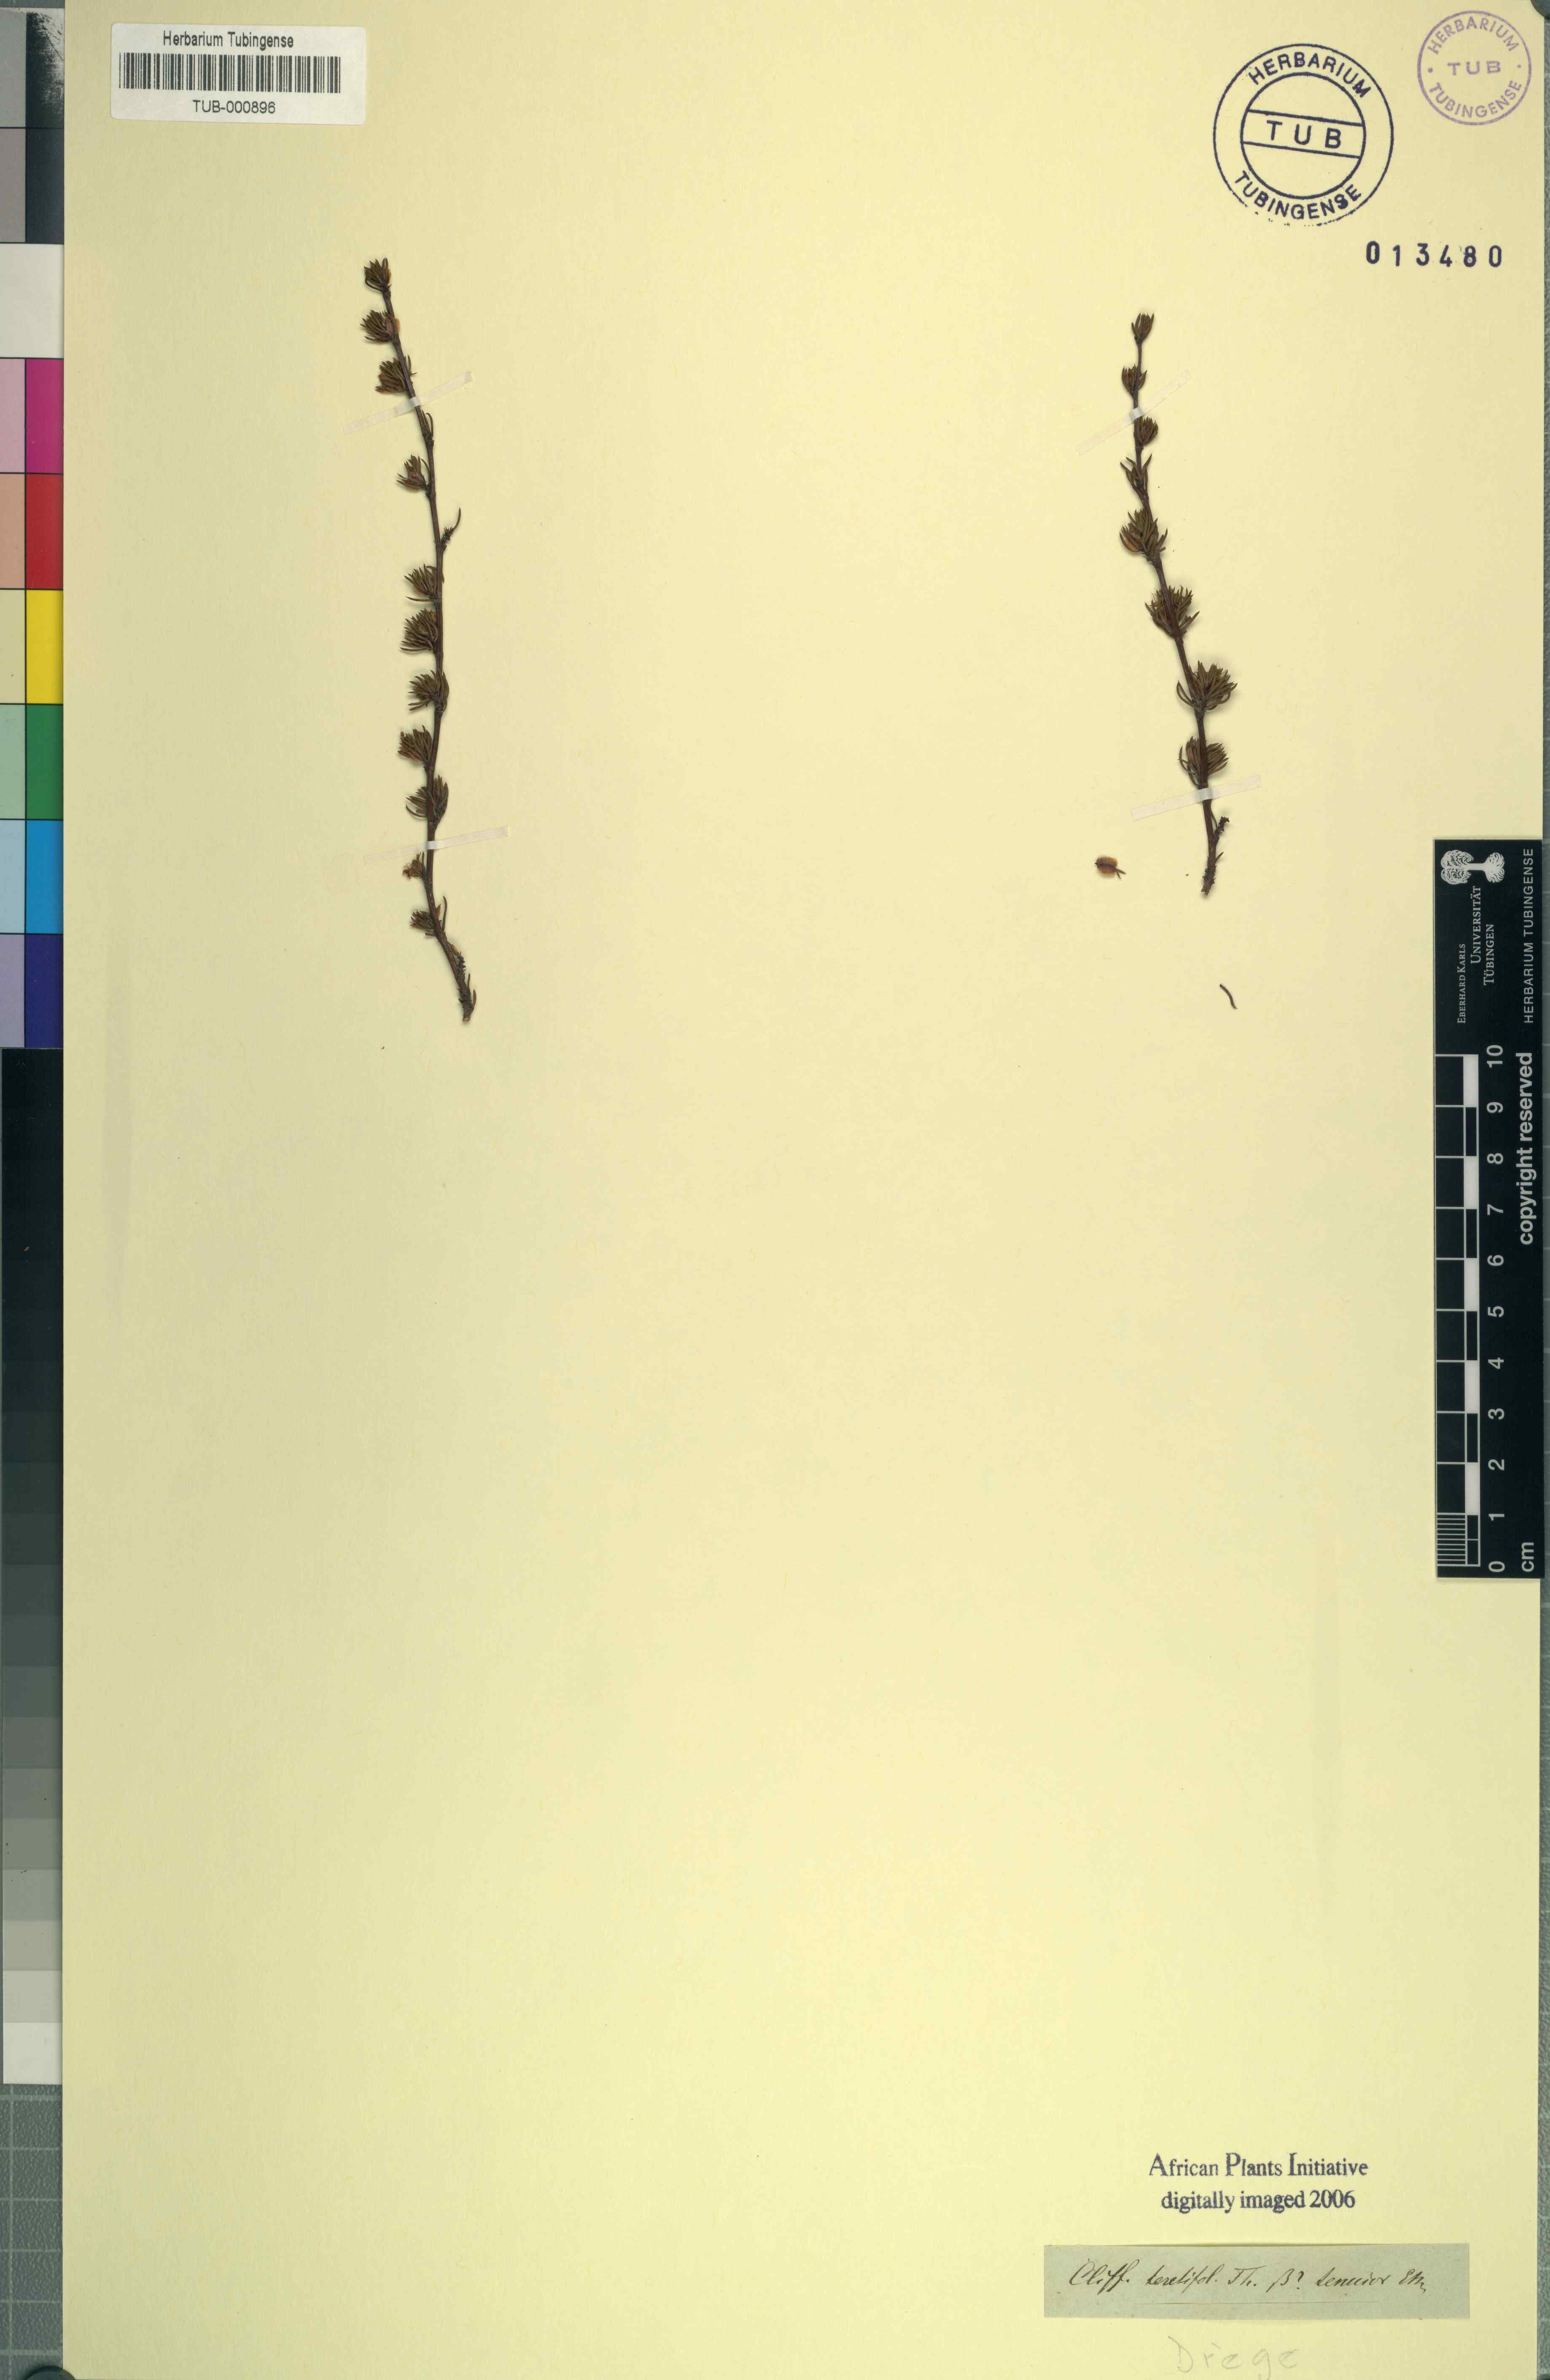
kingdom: Plantae
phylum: Tracheophyta
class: Magnoliopsida
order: Rosales
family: Rosaceae
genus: Cliffortia
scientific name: Cliffortia teretifolia
